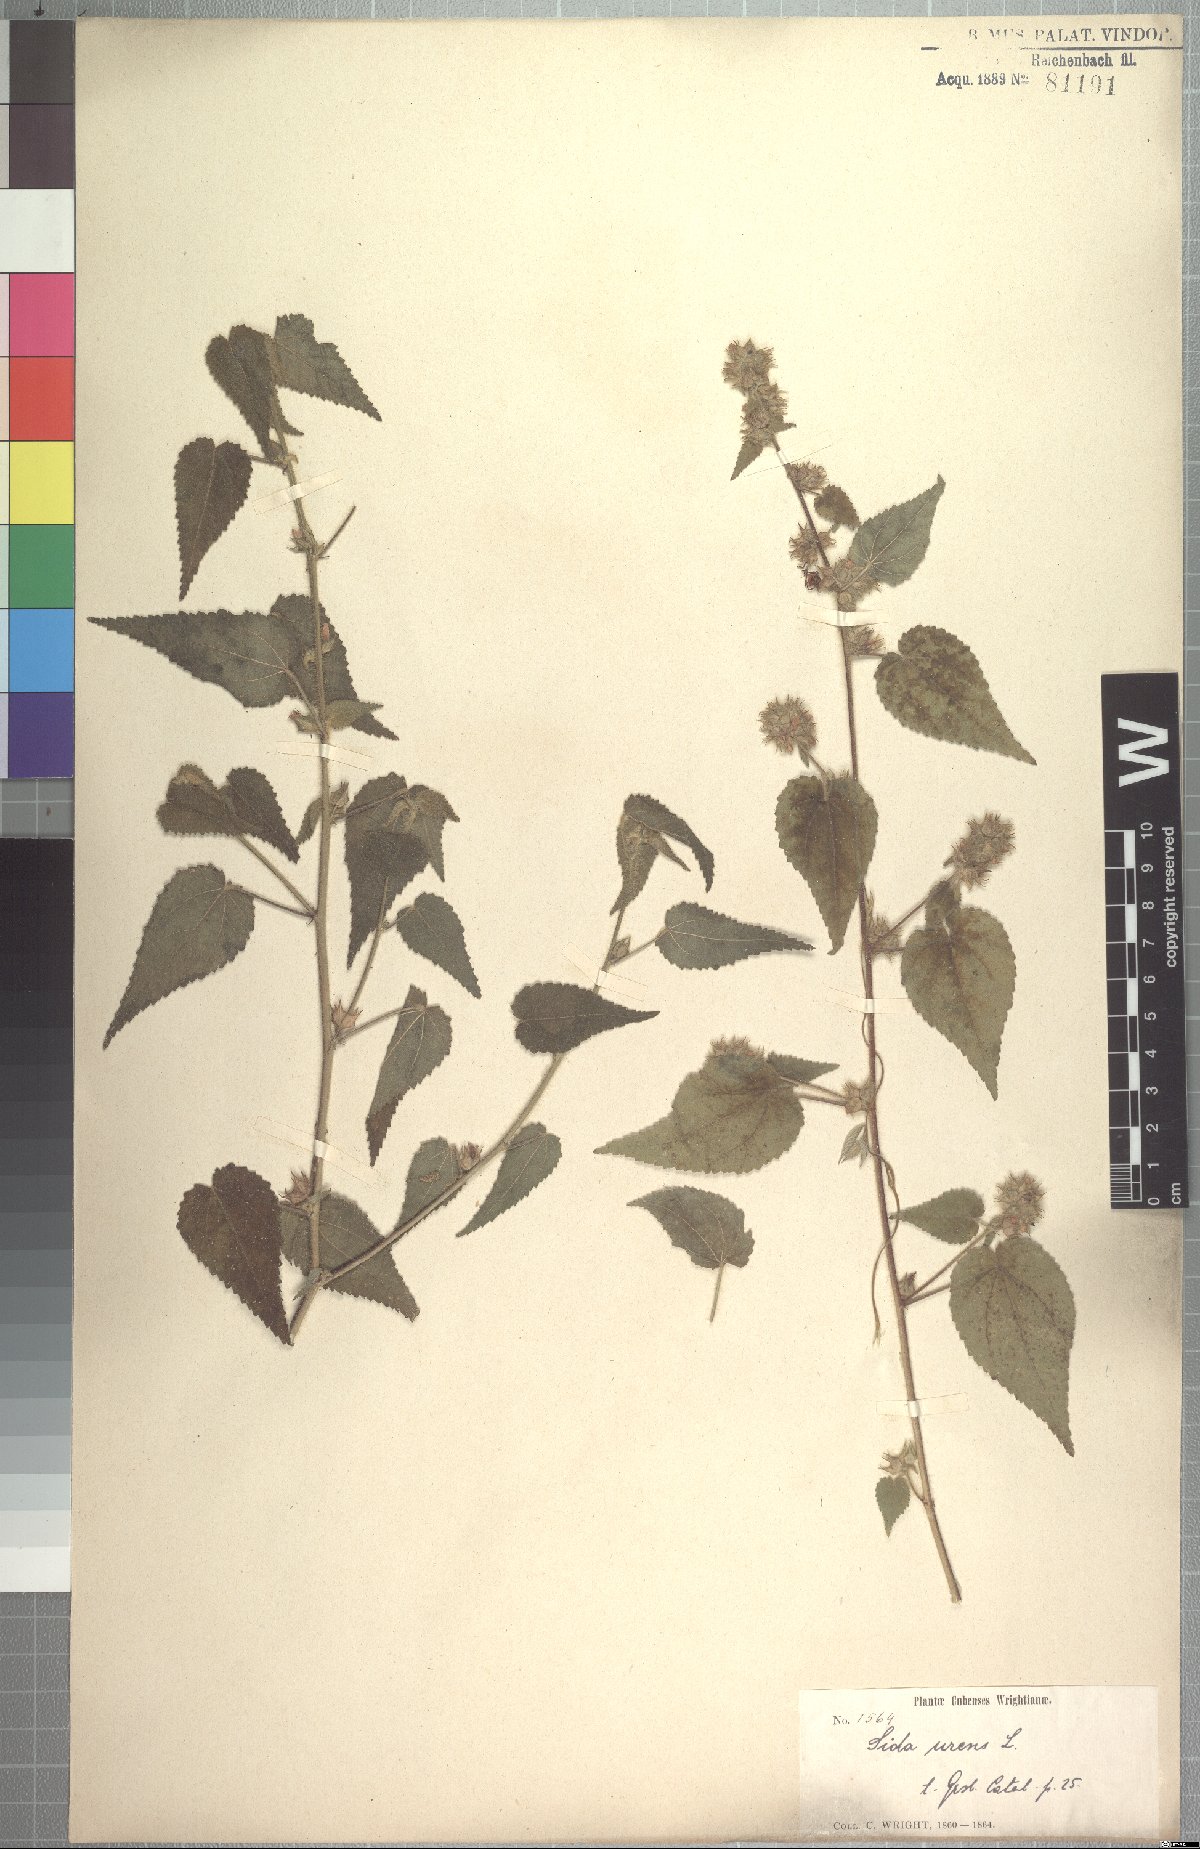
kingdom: Plantae
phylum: Tracheophyta
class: Magnoliopsida
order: Malvales
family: Malvaceae
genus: Sida
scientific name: Sida urens
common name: Tropical fanpetals
